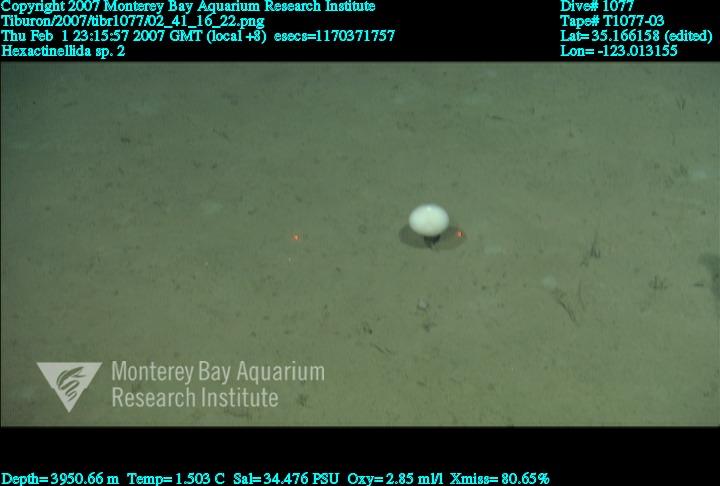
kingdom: Animalia
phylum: Porifera
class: Hexactinellida
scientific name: Hexactinellida
